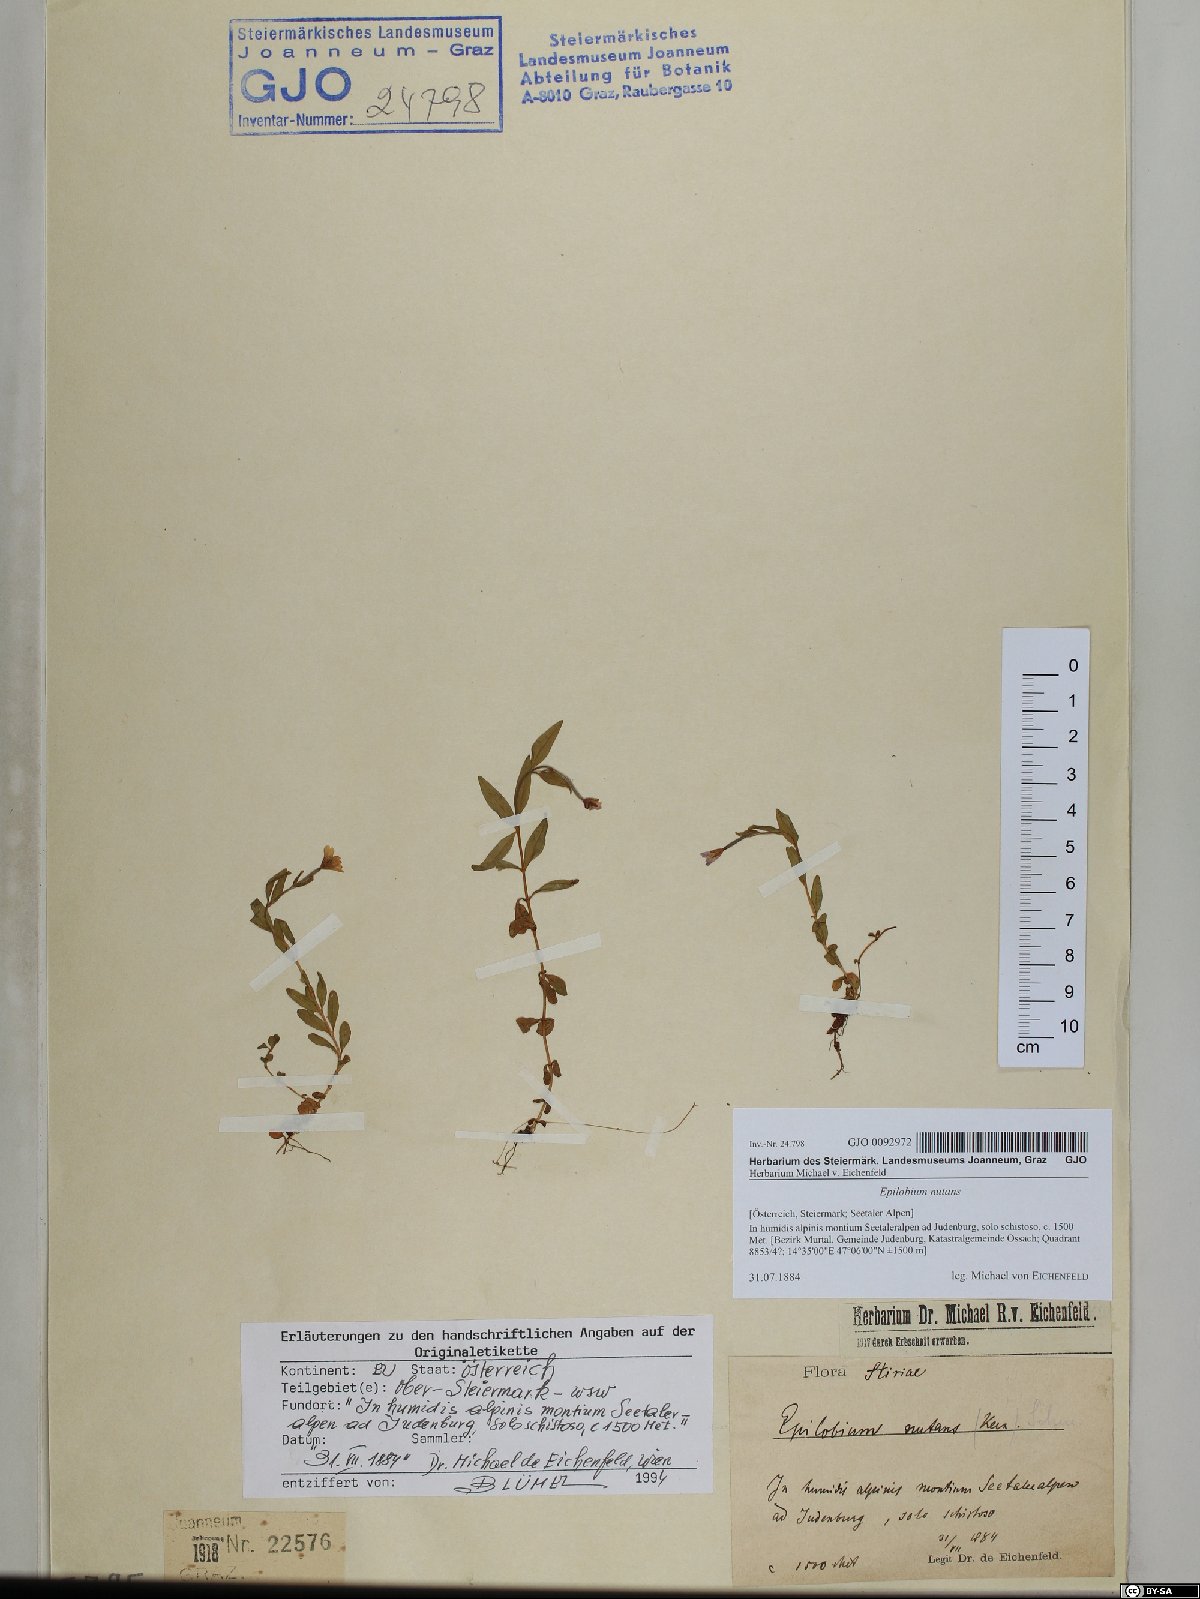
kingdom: Plantae
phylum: Tracheophyta
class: Magnoliopsida
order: Myrtales
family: Onagraceae
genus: Epilobium
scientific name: Epilobium nutans
